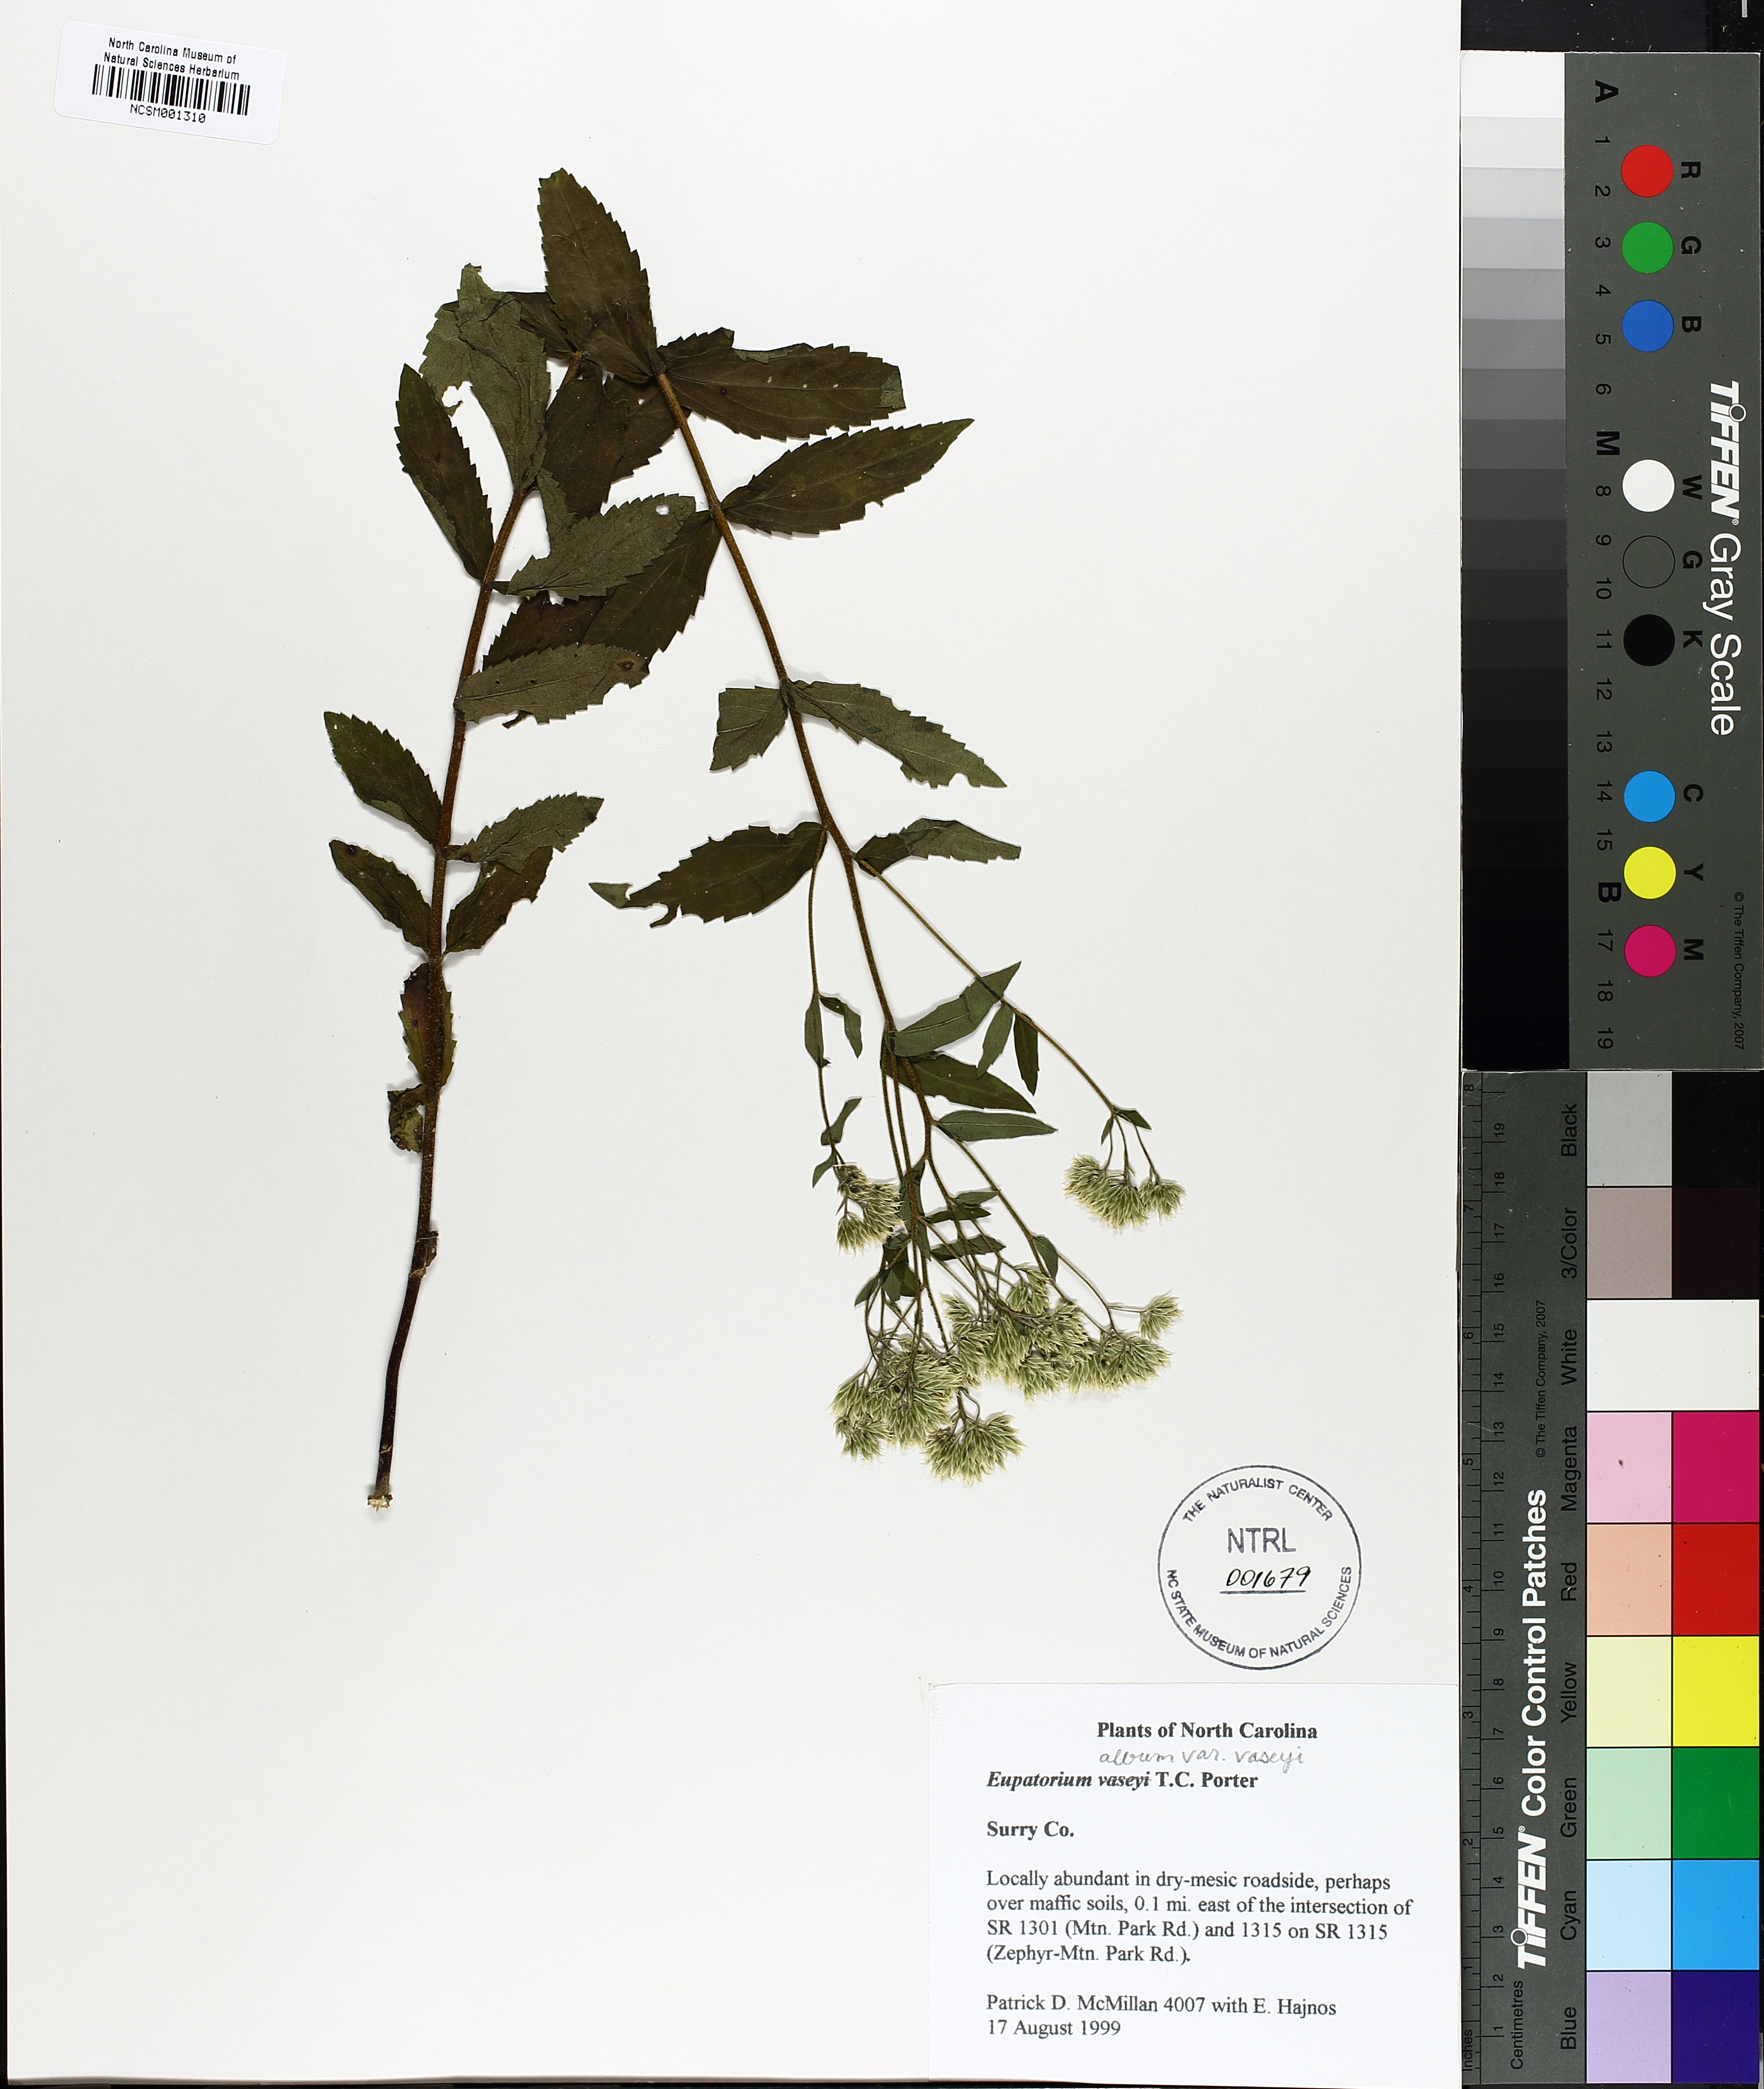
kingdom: Plantae
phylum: Tracheophyta
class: Magnoliopsida
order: Asterales
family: Asteraceae
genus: Eupatorium
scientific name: Eupatorium sessilifolium
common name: Upland boneset
